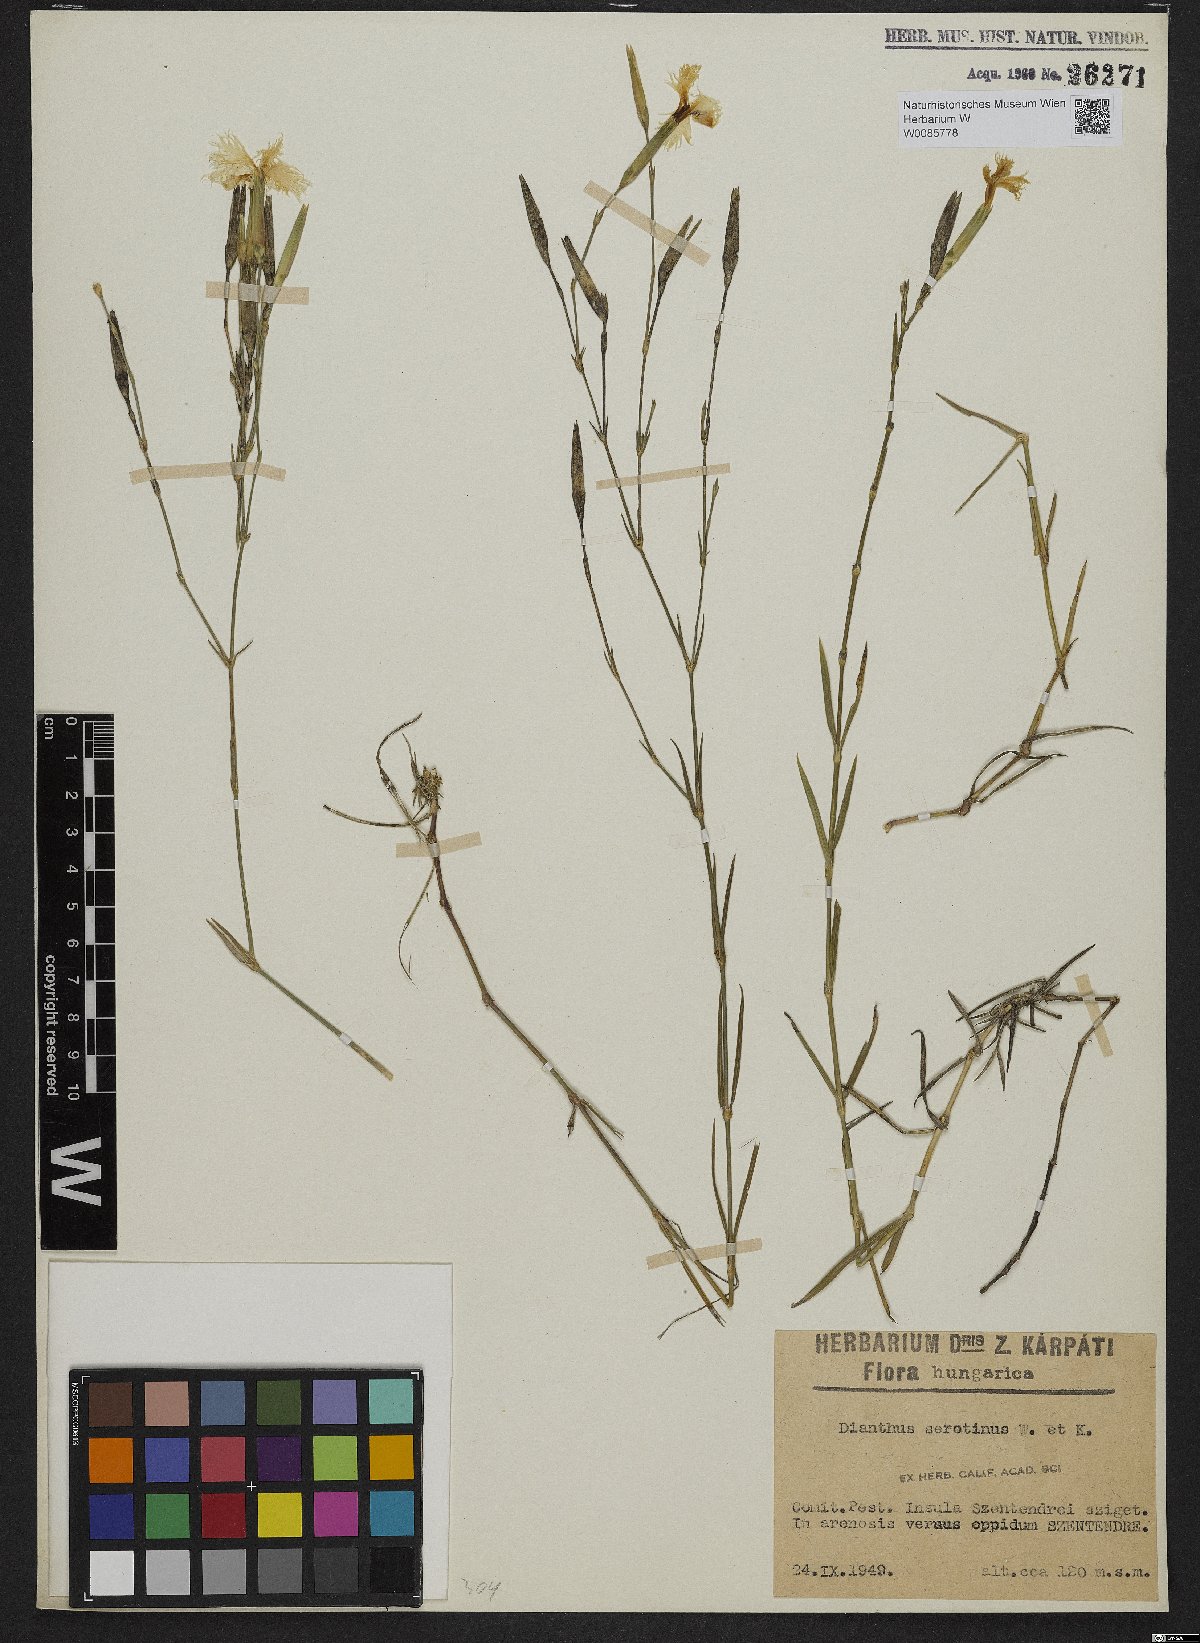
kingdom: Plantae
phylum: Tracheophyta
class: Magnoliopsida
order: Caryophyllales
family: Caryophyllaceae
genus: Dianthus
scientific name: Dianthus serotinus
